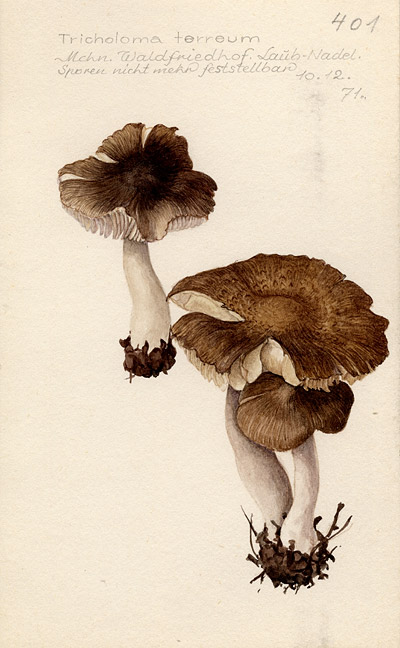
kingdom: Fungi
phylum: Basidiomycota
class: Agaricomycetes
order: Agaricales
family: Tricholomataceae
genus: Tricholoma
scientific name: Tricholoma terreum
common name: Grey knight
